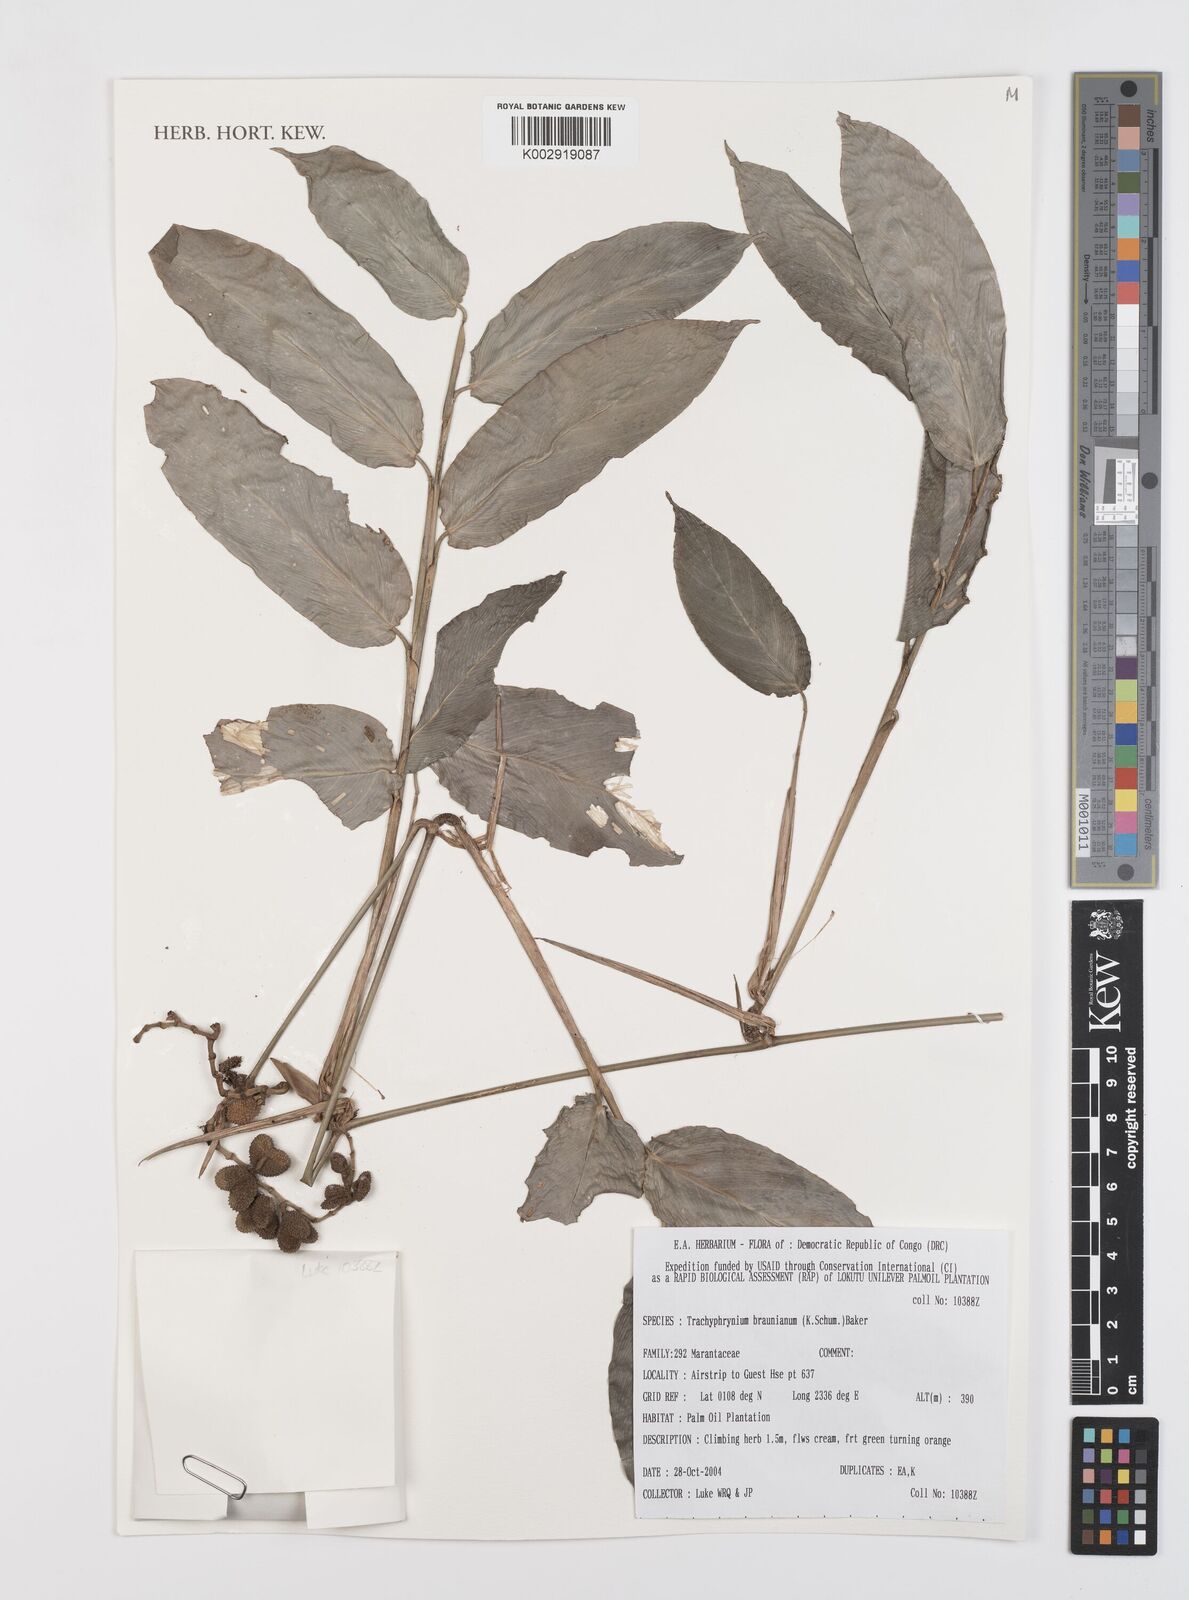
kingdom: Plantae
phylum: Tracheophyta
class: Liliopsida
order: Zingiberales
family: Marantaceae
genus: Trachyphrynium
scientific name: Trachyphrynium braunianum
